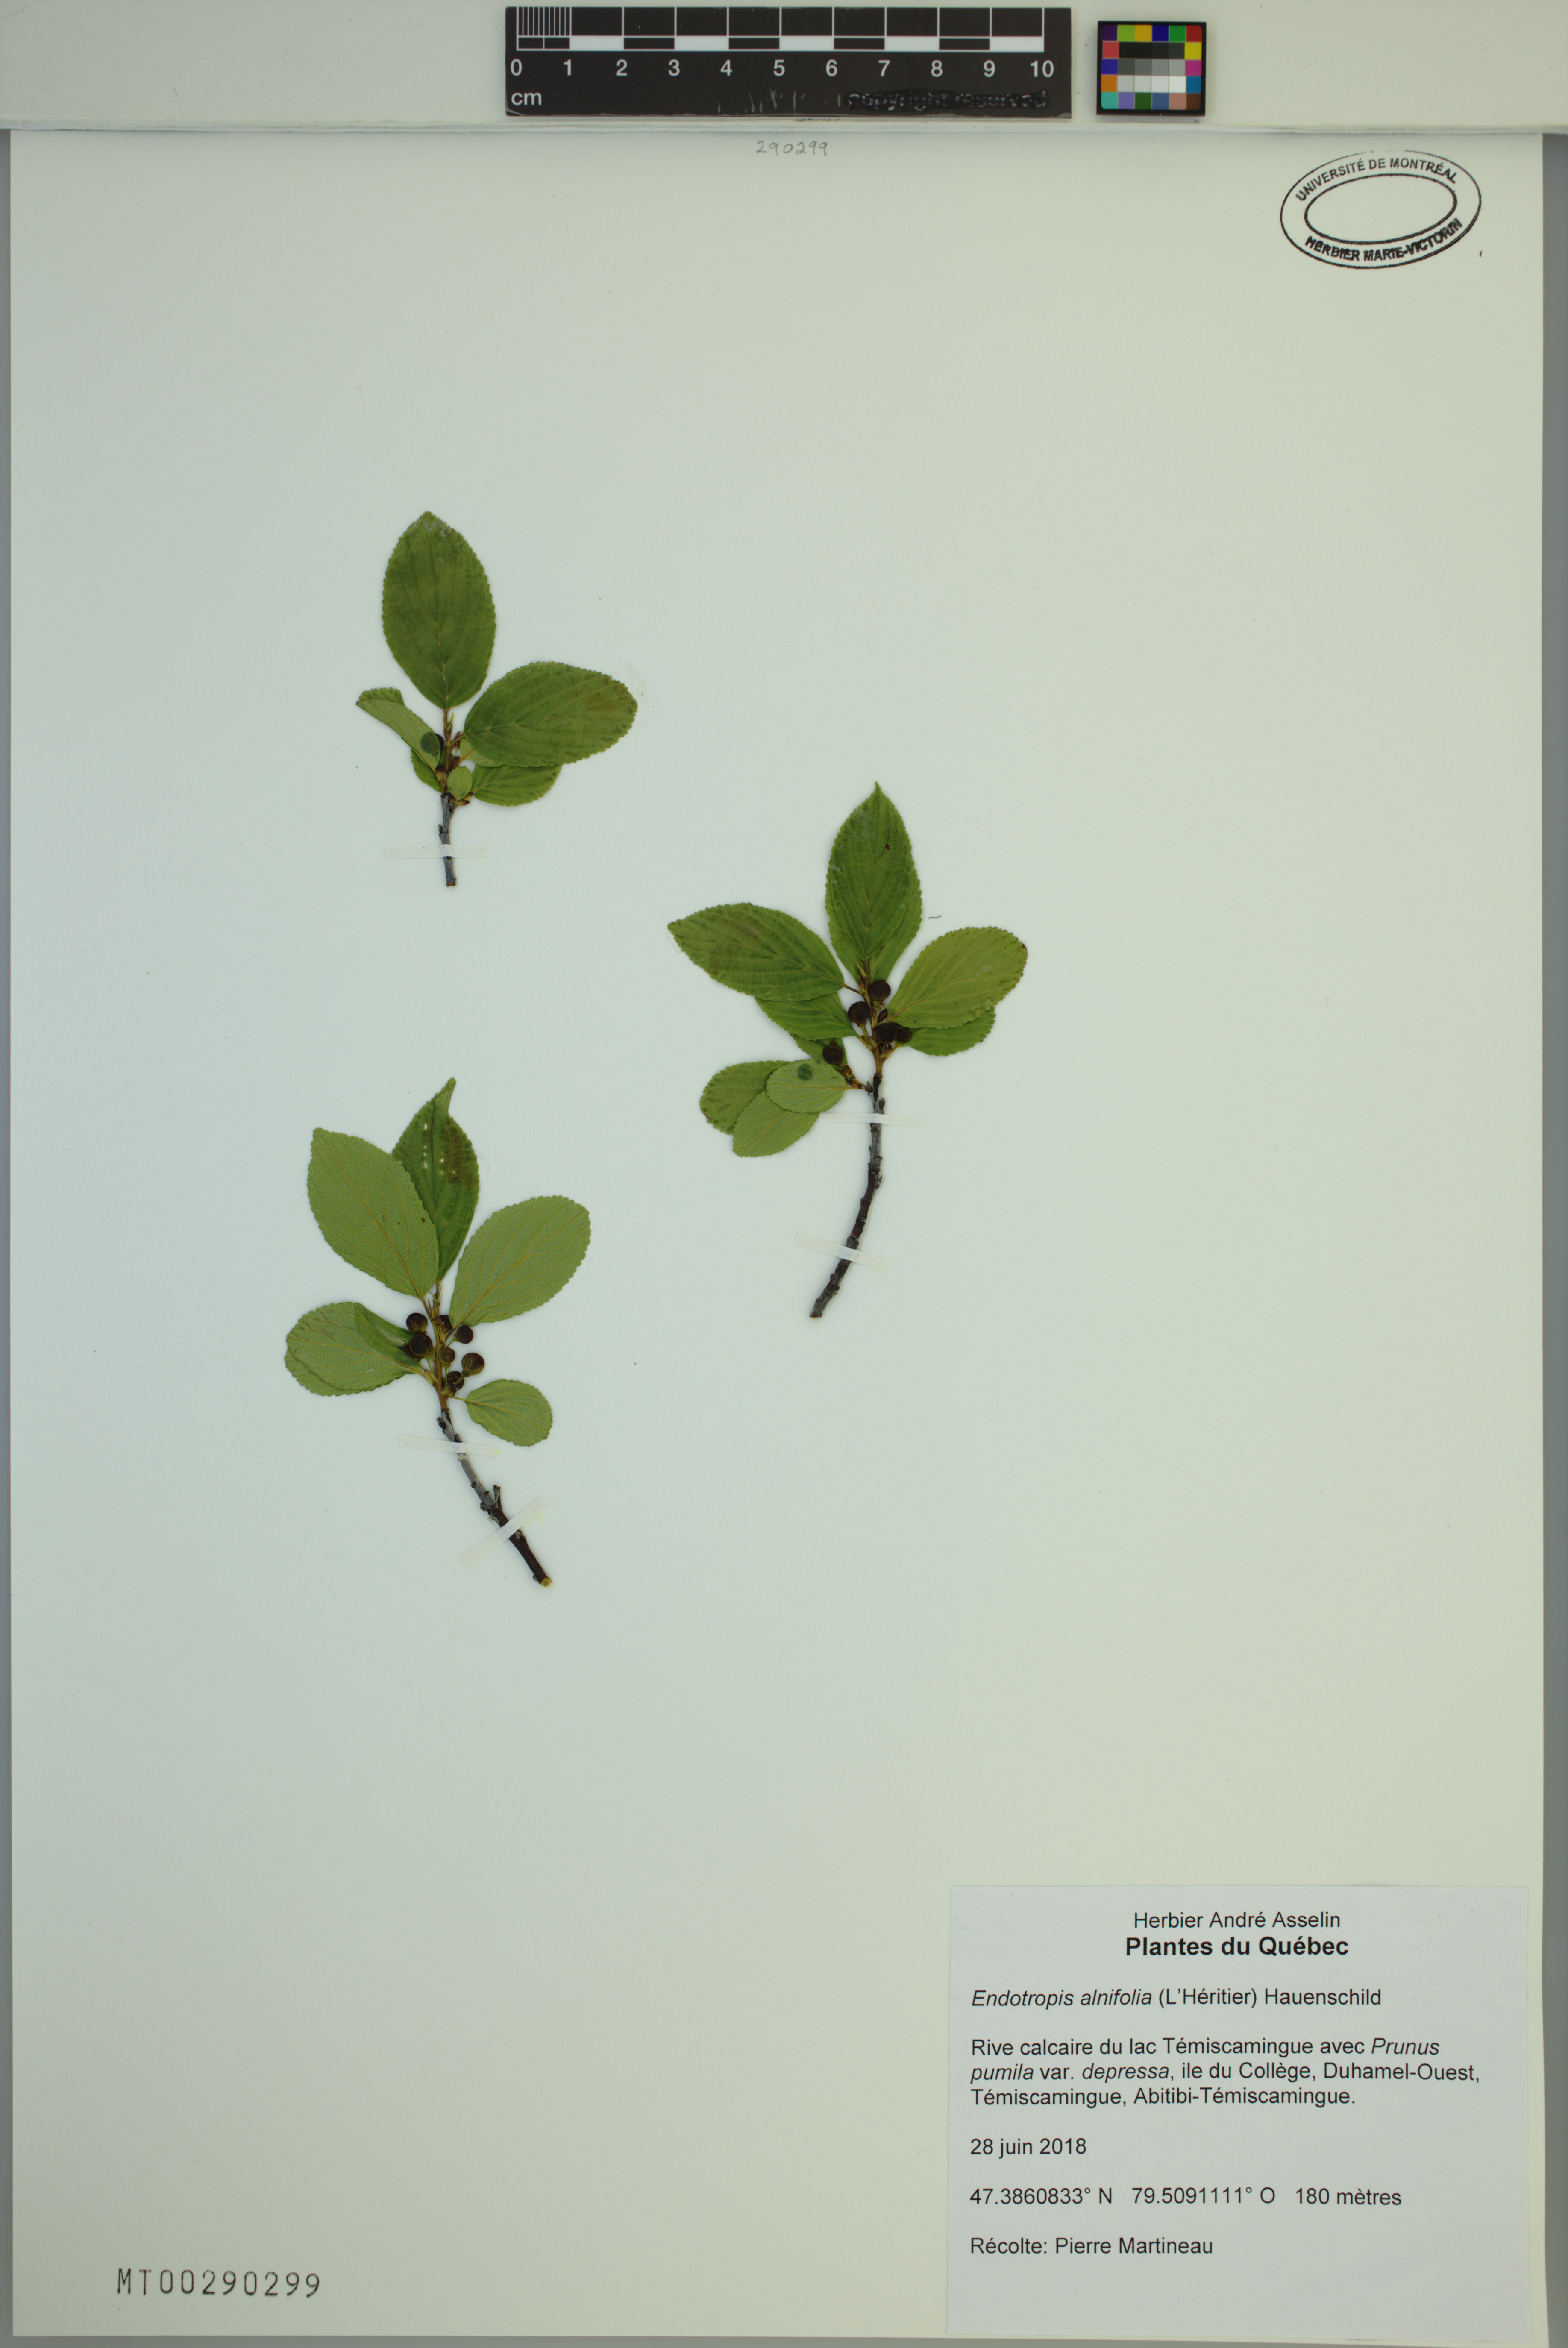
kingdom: Plantae
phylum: Tracheophyta
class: Magnoliopsida
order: Rosales
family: Rhamnaceae
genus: Endotropis
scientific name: Endotropis alnifolia
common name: American alder-buckthorn
